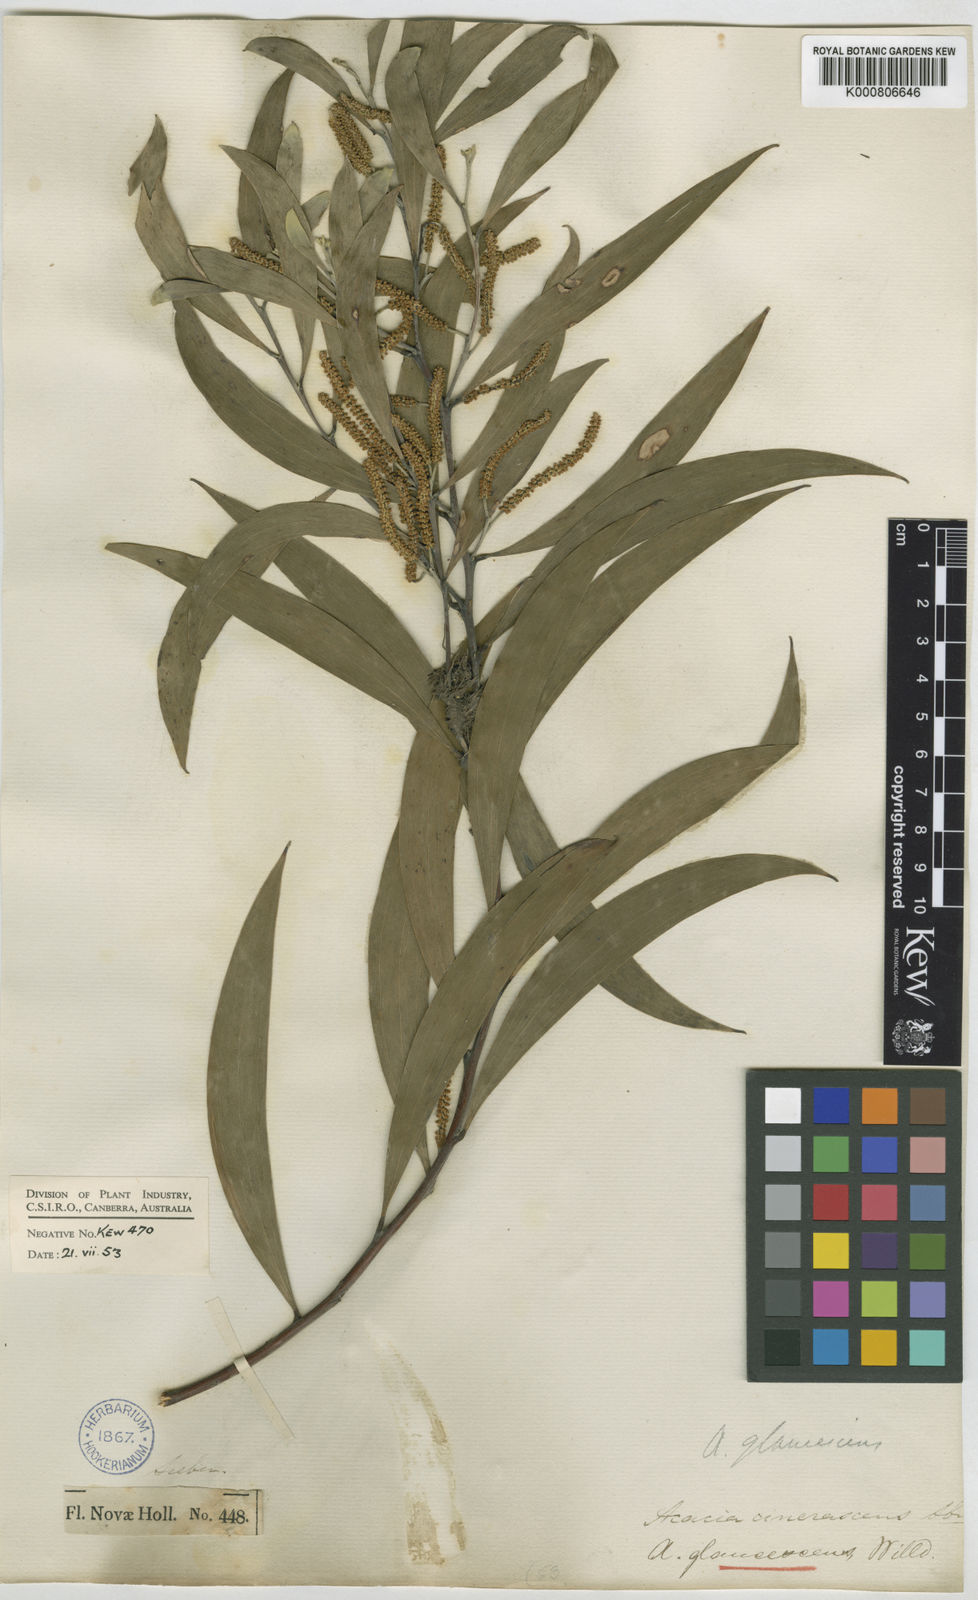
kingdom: Plantae
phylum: Tracheophyta
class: Magnoliopsida
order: Fabales
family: Fabaceae
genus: Acacia
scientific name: Acacia binervia
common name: Coast myall
